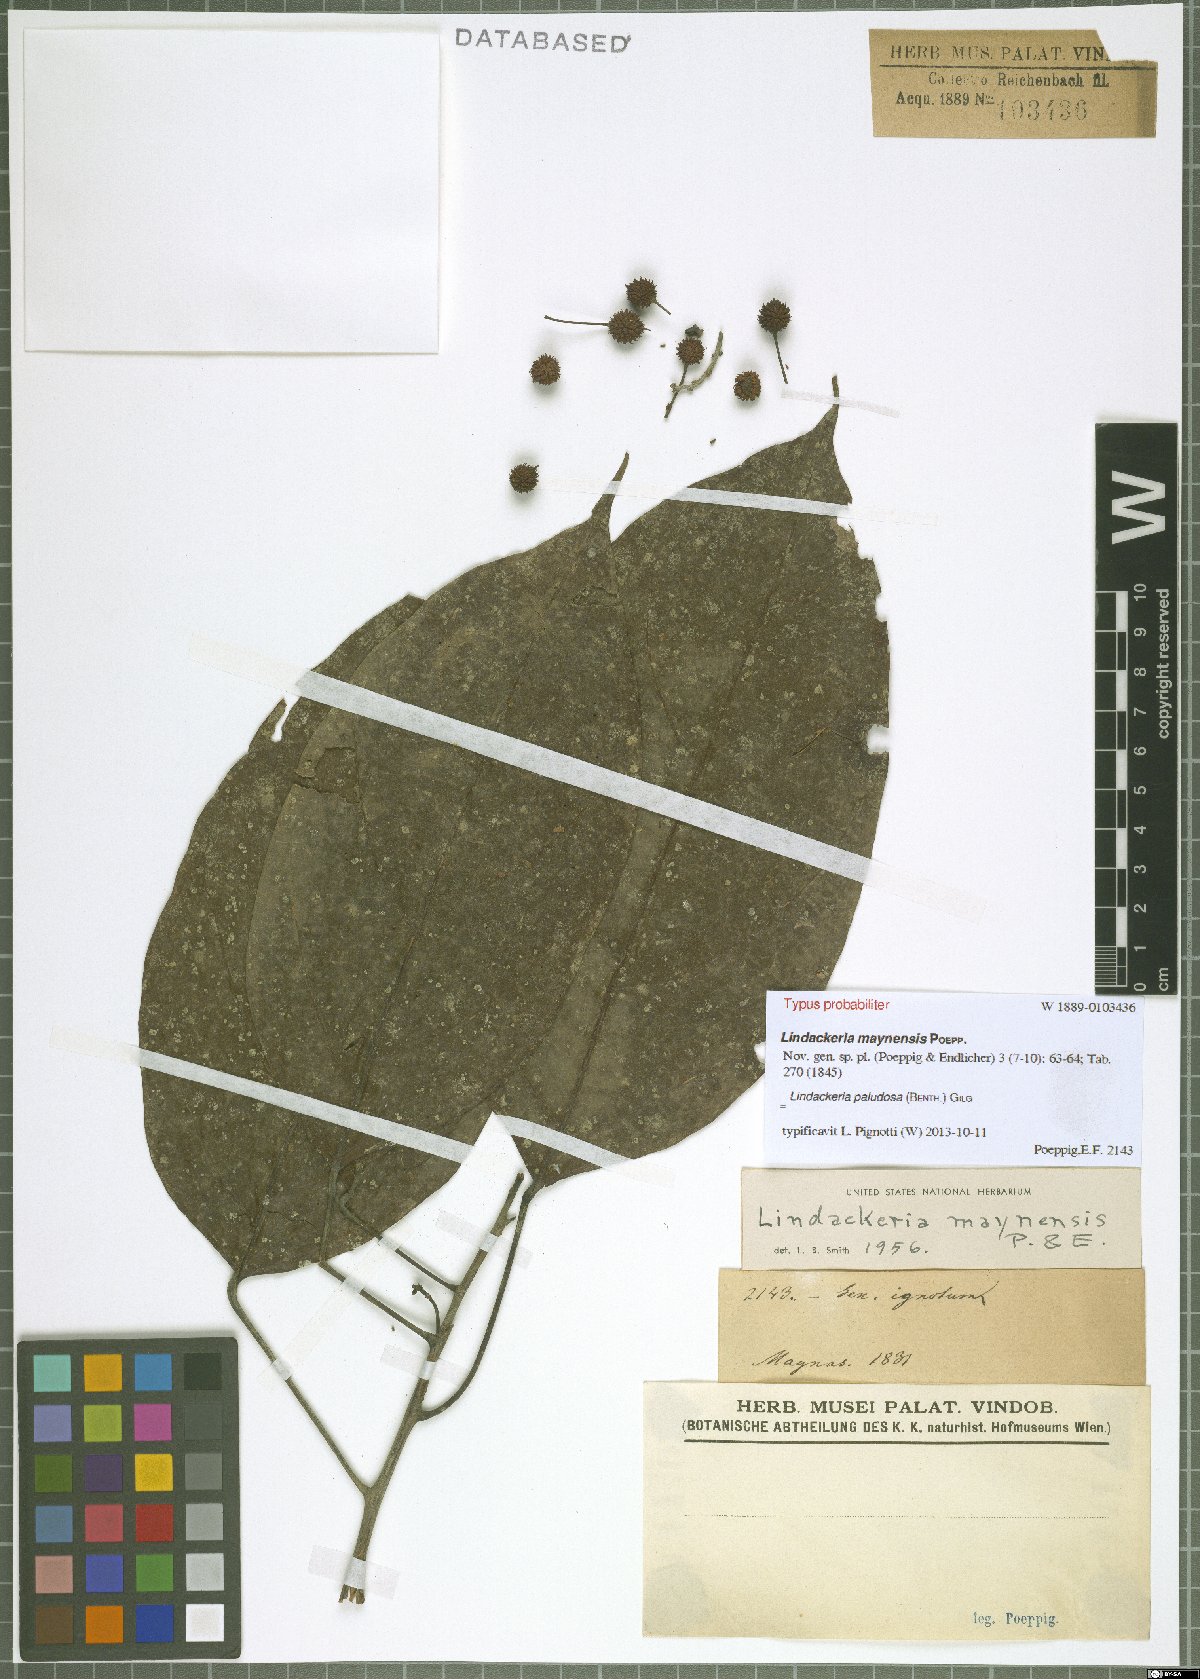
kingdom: Plantae
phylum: Tracheophyta
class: Magnoliopsida
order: Malpighiales
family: Achariaceae
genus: Lindackeria
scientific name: Lindackeria paludosa
